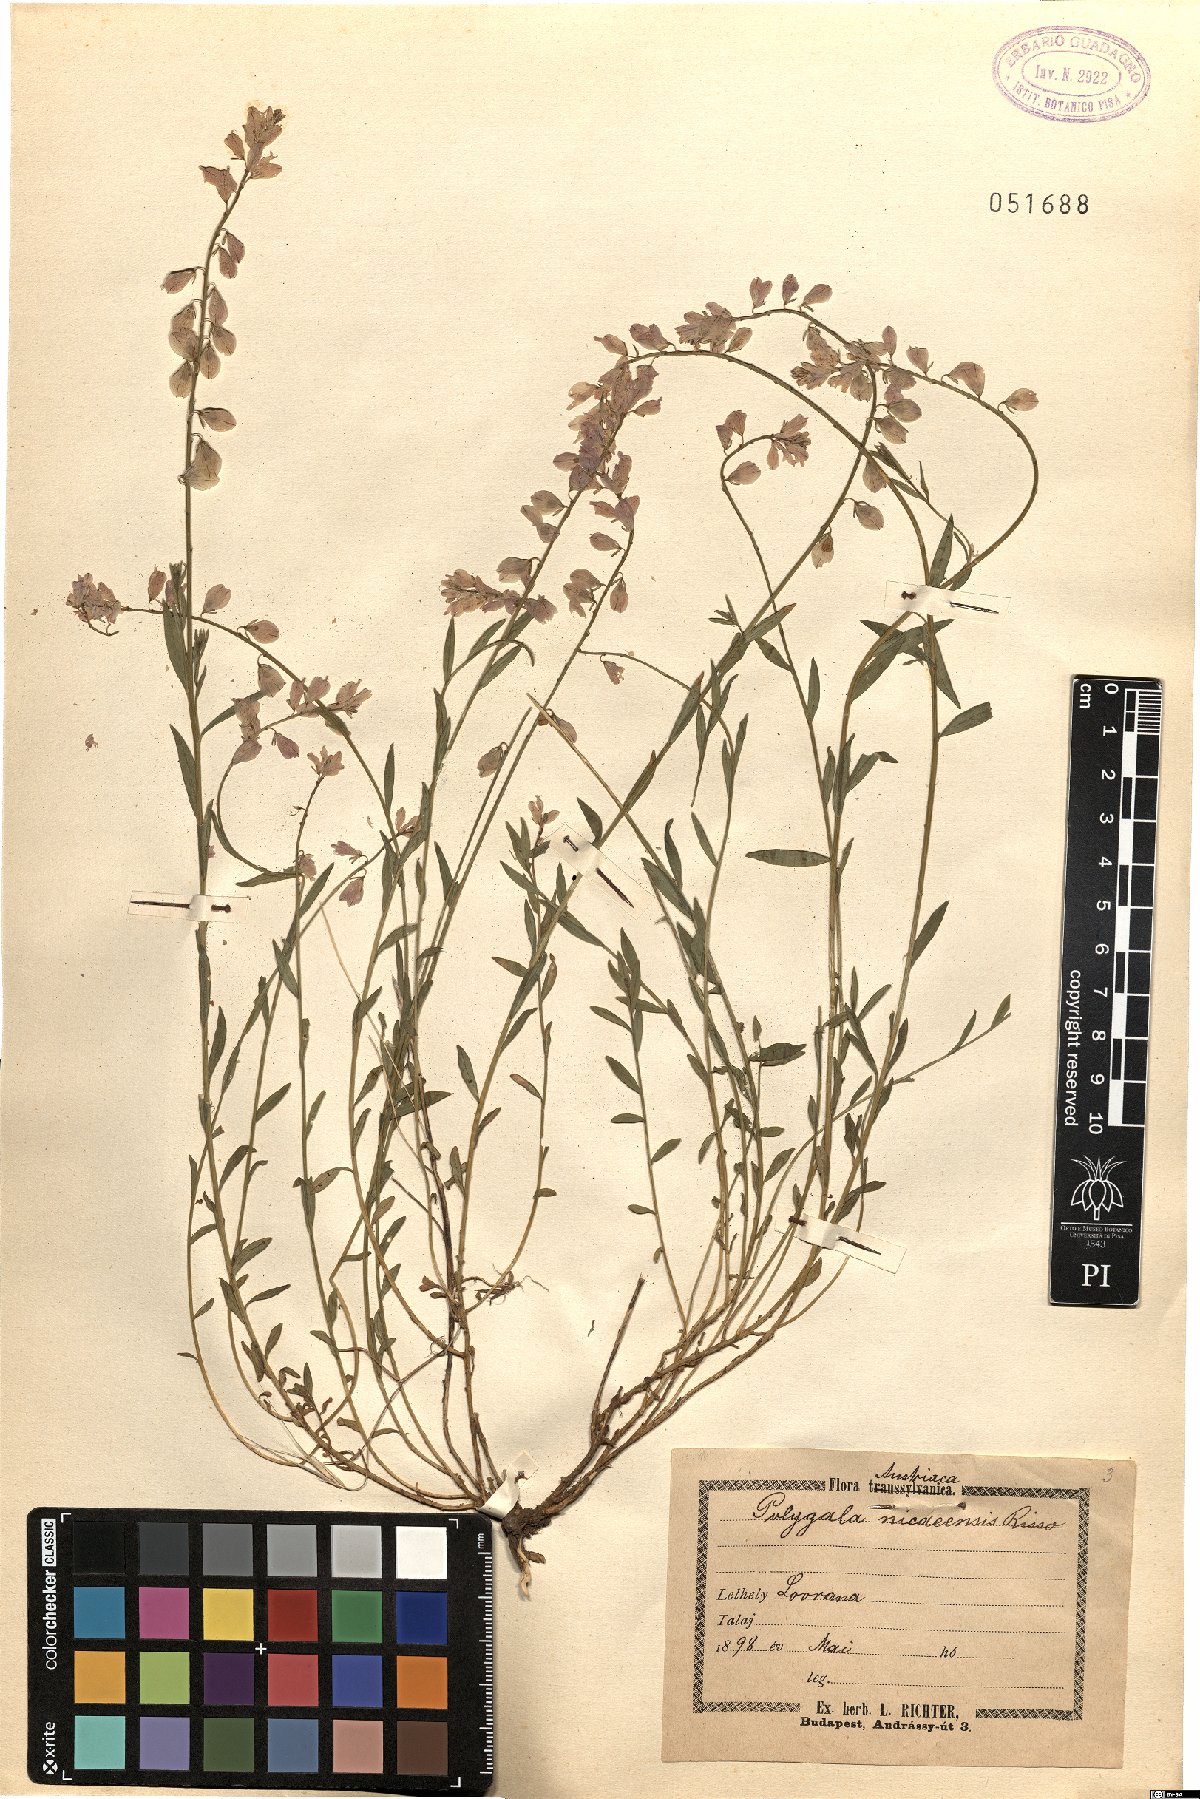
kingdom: Plantae
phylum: Tracheophyta
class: Magnoliopsida
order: Fabales
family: Polygalaceae
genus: Polygala
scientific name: Polygala nicaeensis
